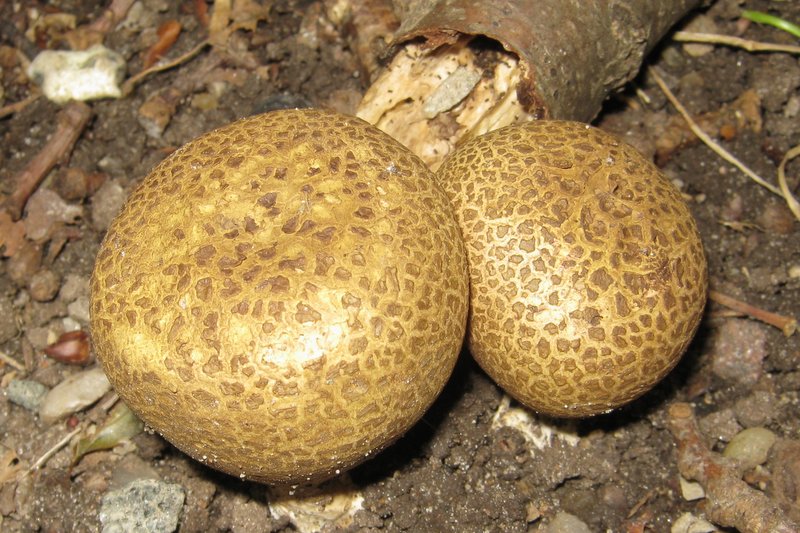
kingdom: Fungi
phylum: Basidiomycota
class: Agaricomycetes
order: Boletales
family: Sclerodermataceae
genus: Scleroderma
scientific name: Scleroderma citrinum
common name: almindelig bruskbold
